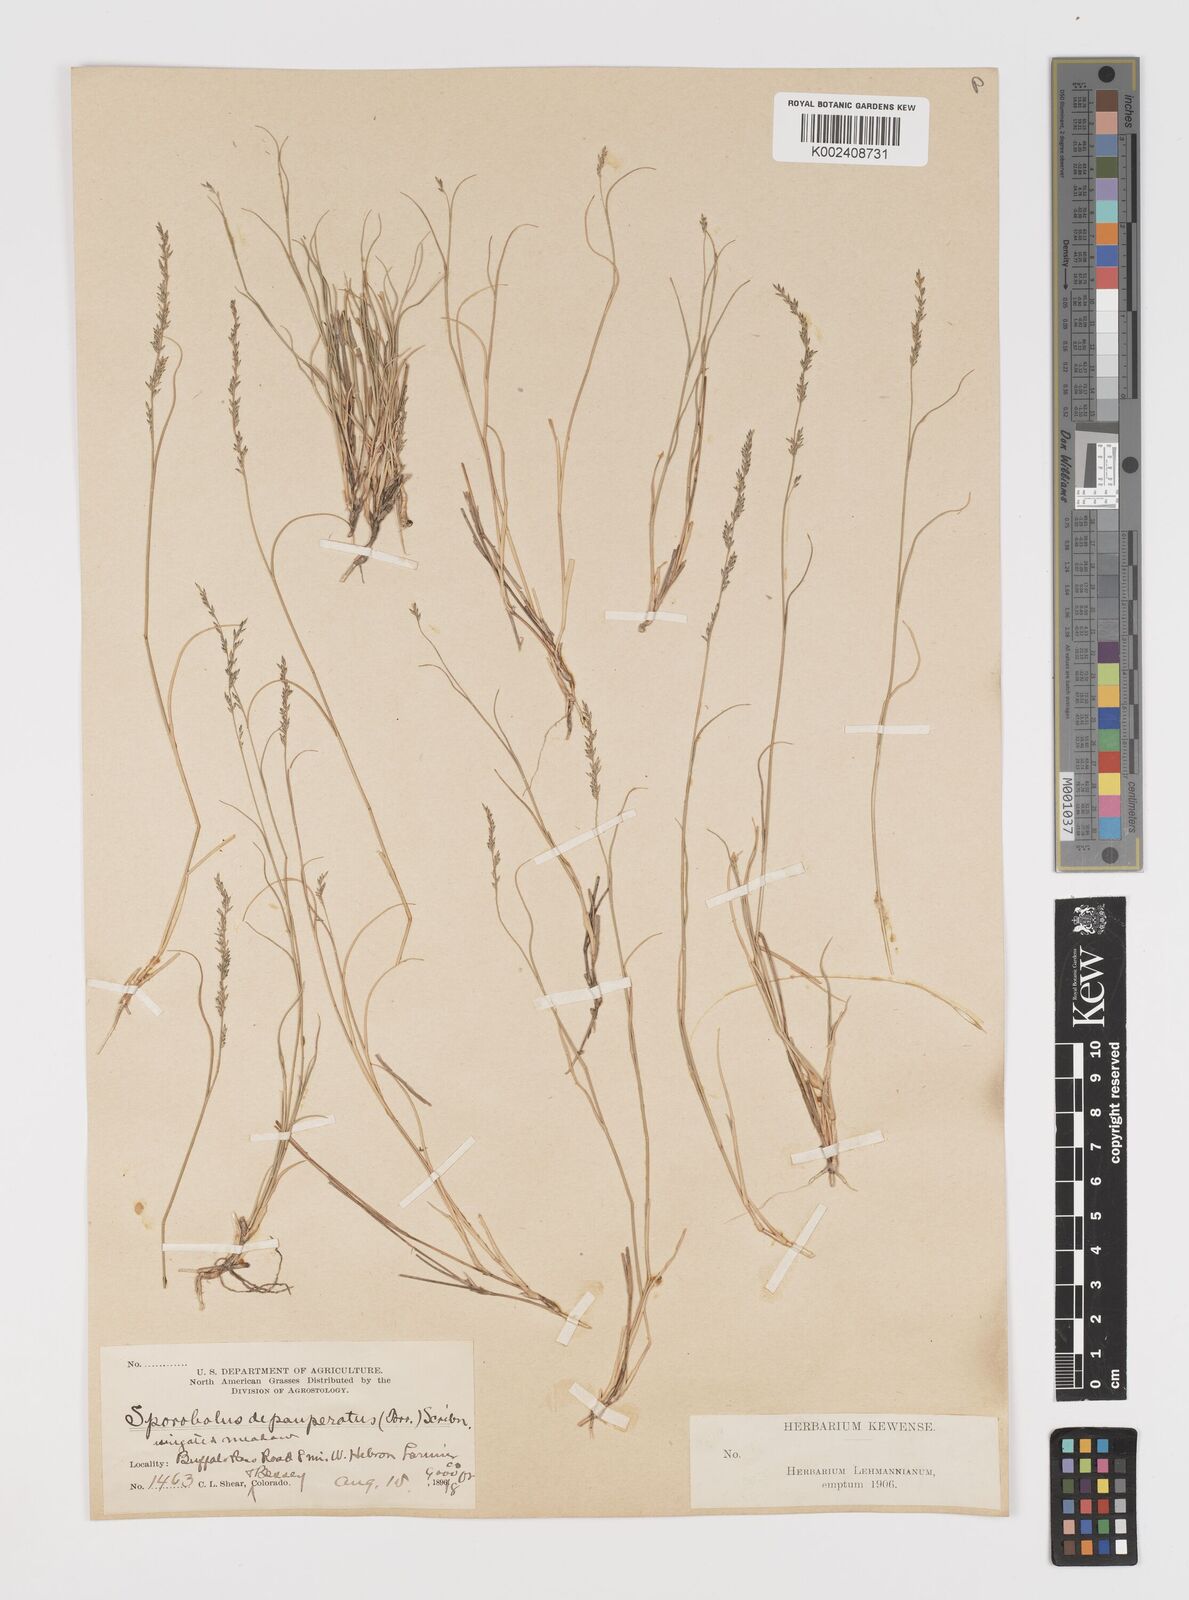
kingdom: Plantae
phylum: Tracheophyta
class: Liliopsida
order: Poales
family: Poaceae
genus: Muhlenbergia
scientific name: Muhlenbergia richardsonis
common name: Mat muhly
